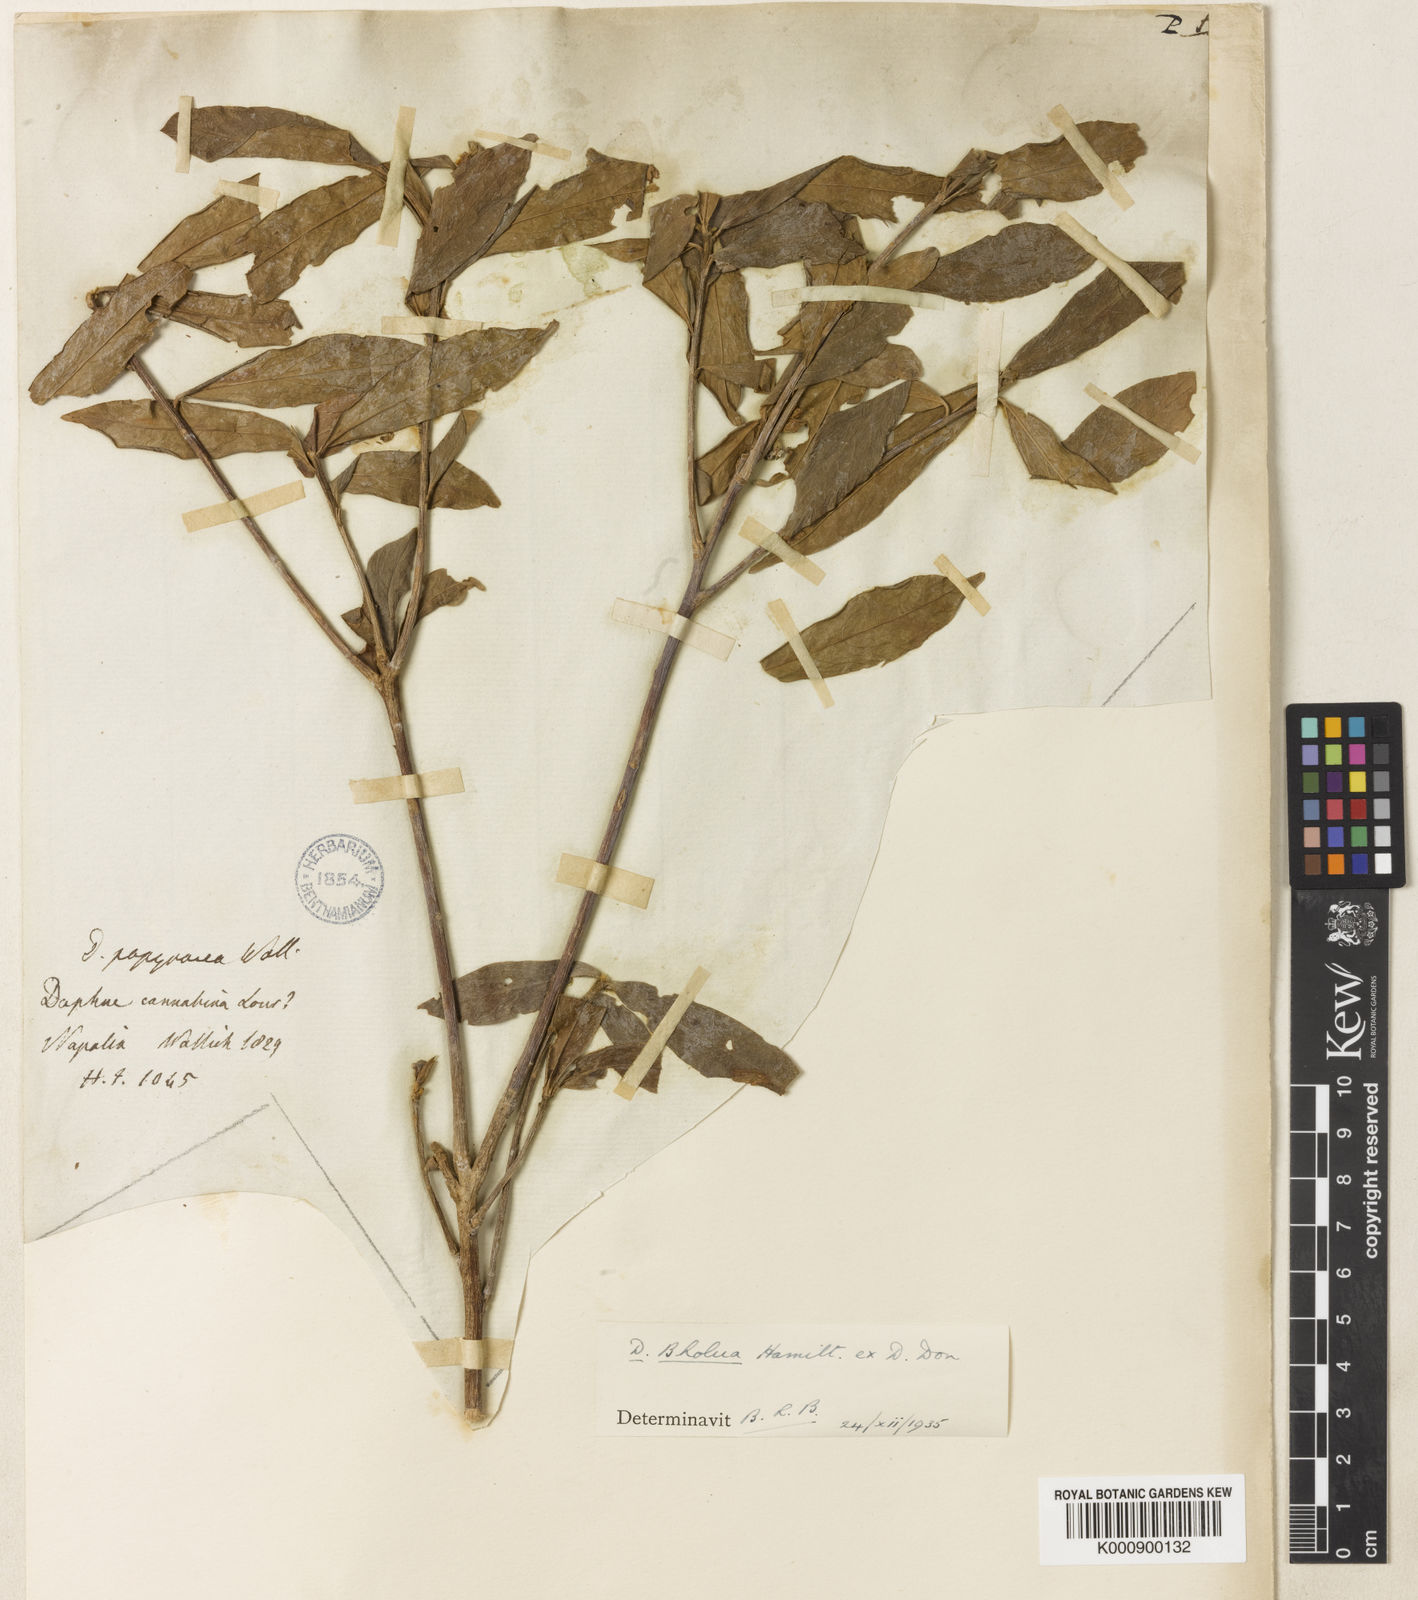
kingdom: Plantae
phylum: Tracheophyta
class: Magnoliopsida
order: Malvales
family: Thymelaeaceae
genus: Daphne
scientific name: Daphne bholua
